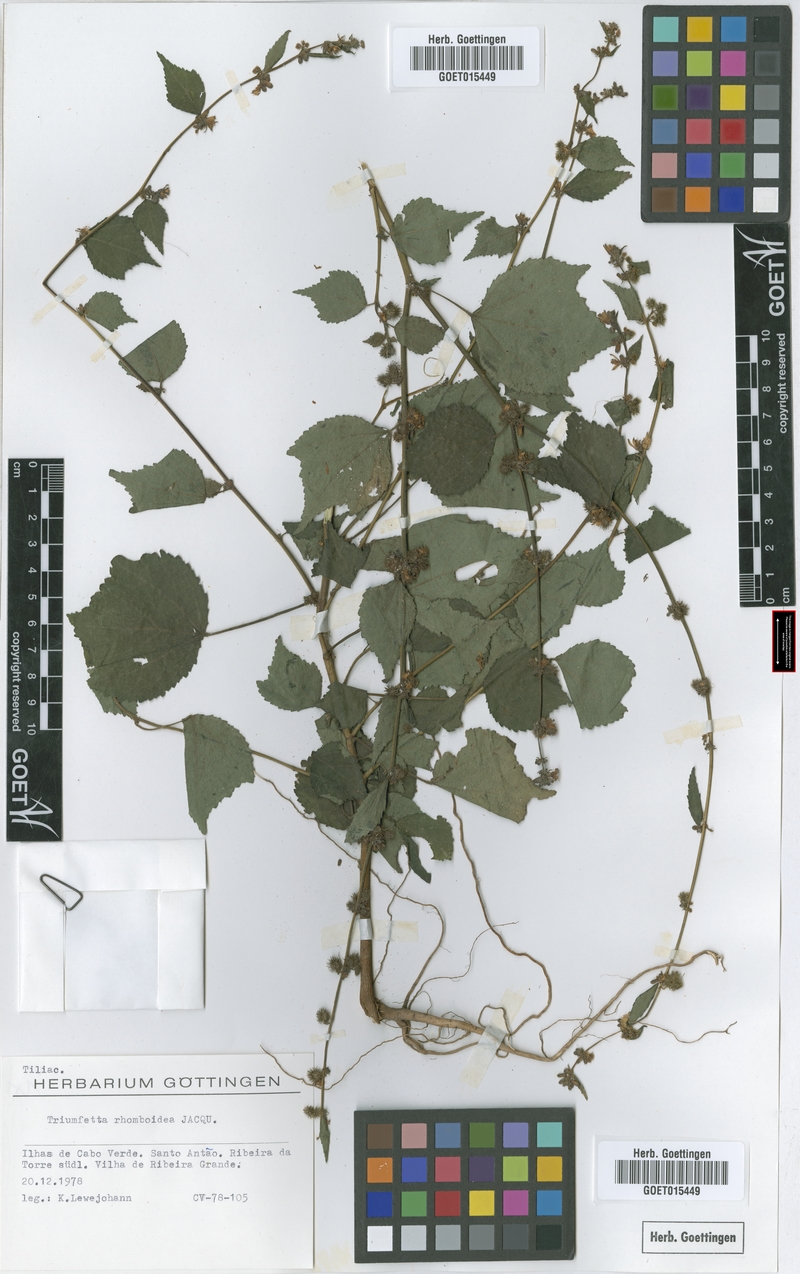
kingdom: Plantae
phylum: Tracheophyta
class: Magnoliopsida
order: Malvales
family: Malvaceae
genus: Triumfetta
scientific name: Triumfetta rhomboidea
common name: Diamond burbark
